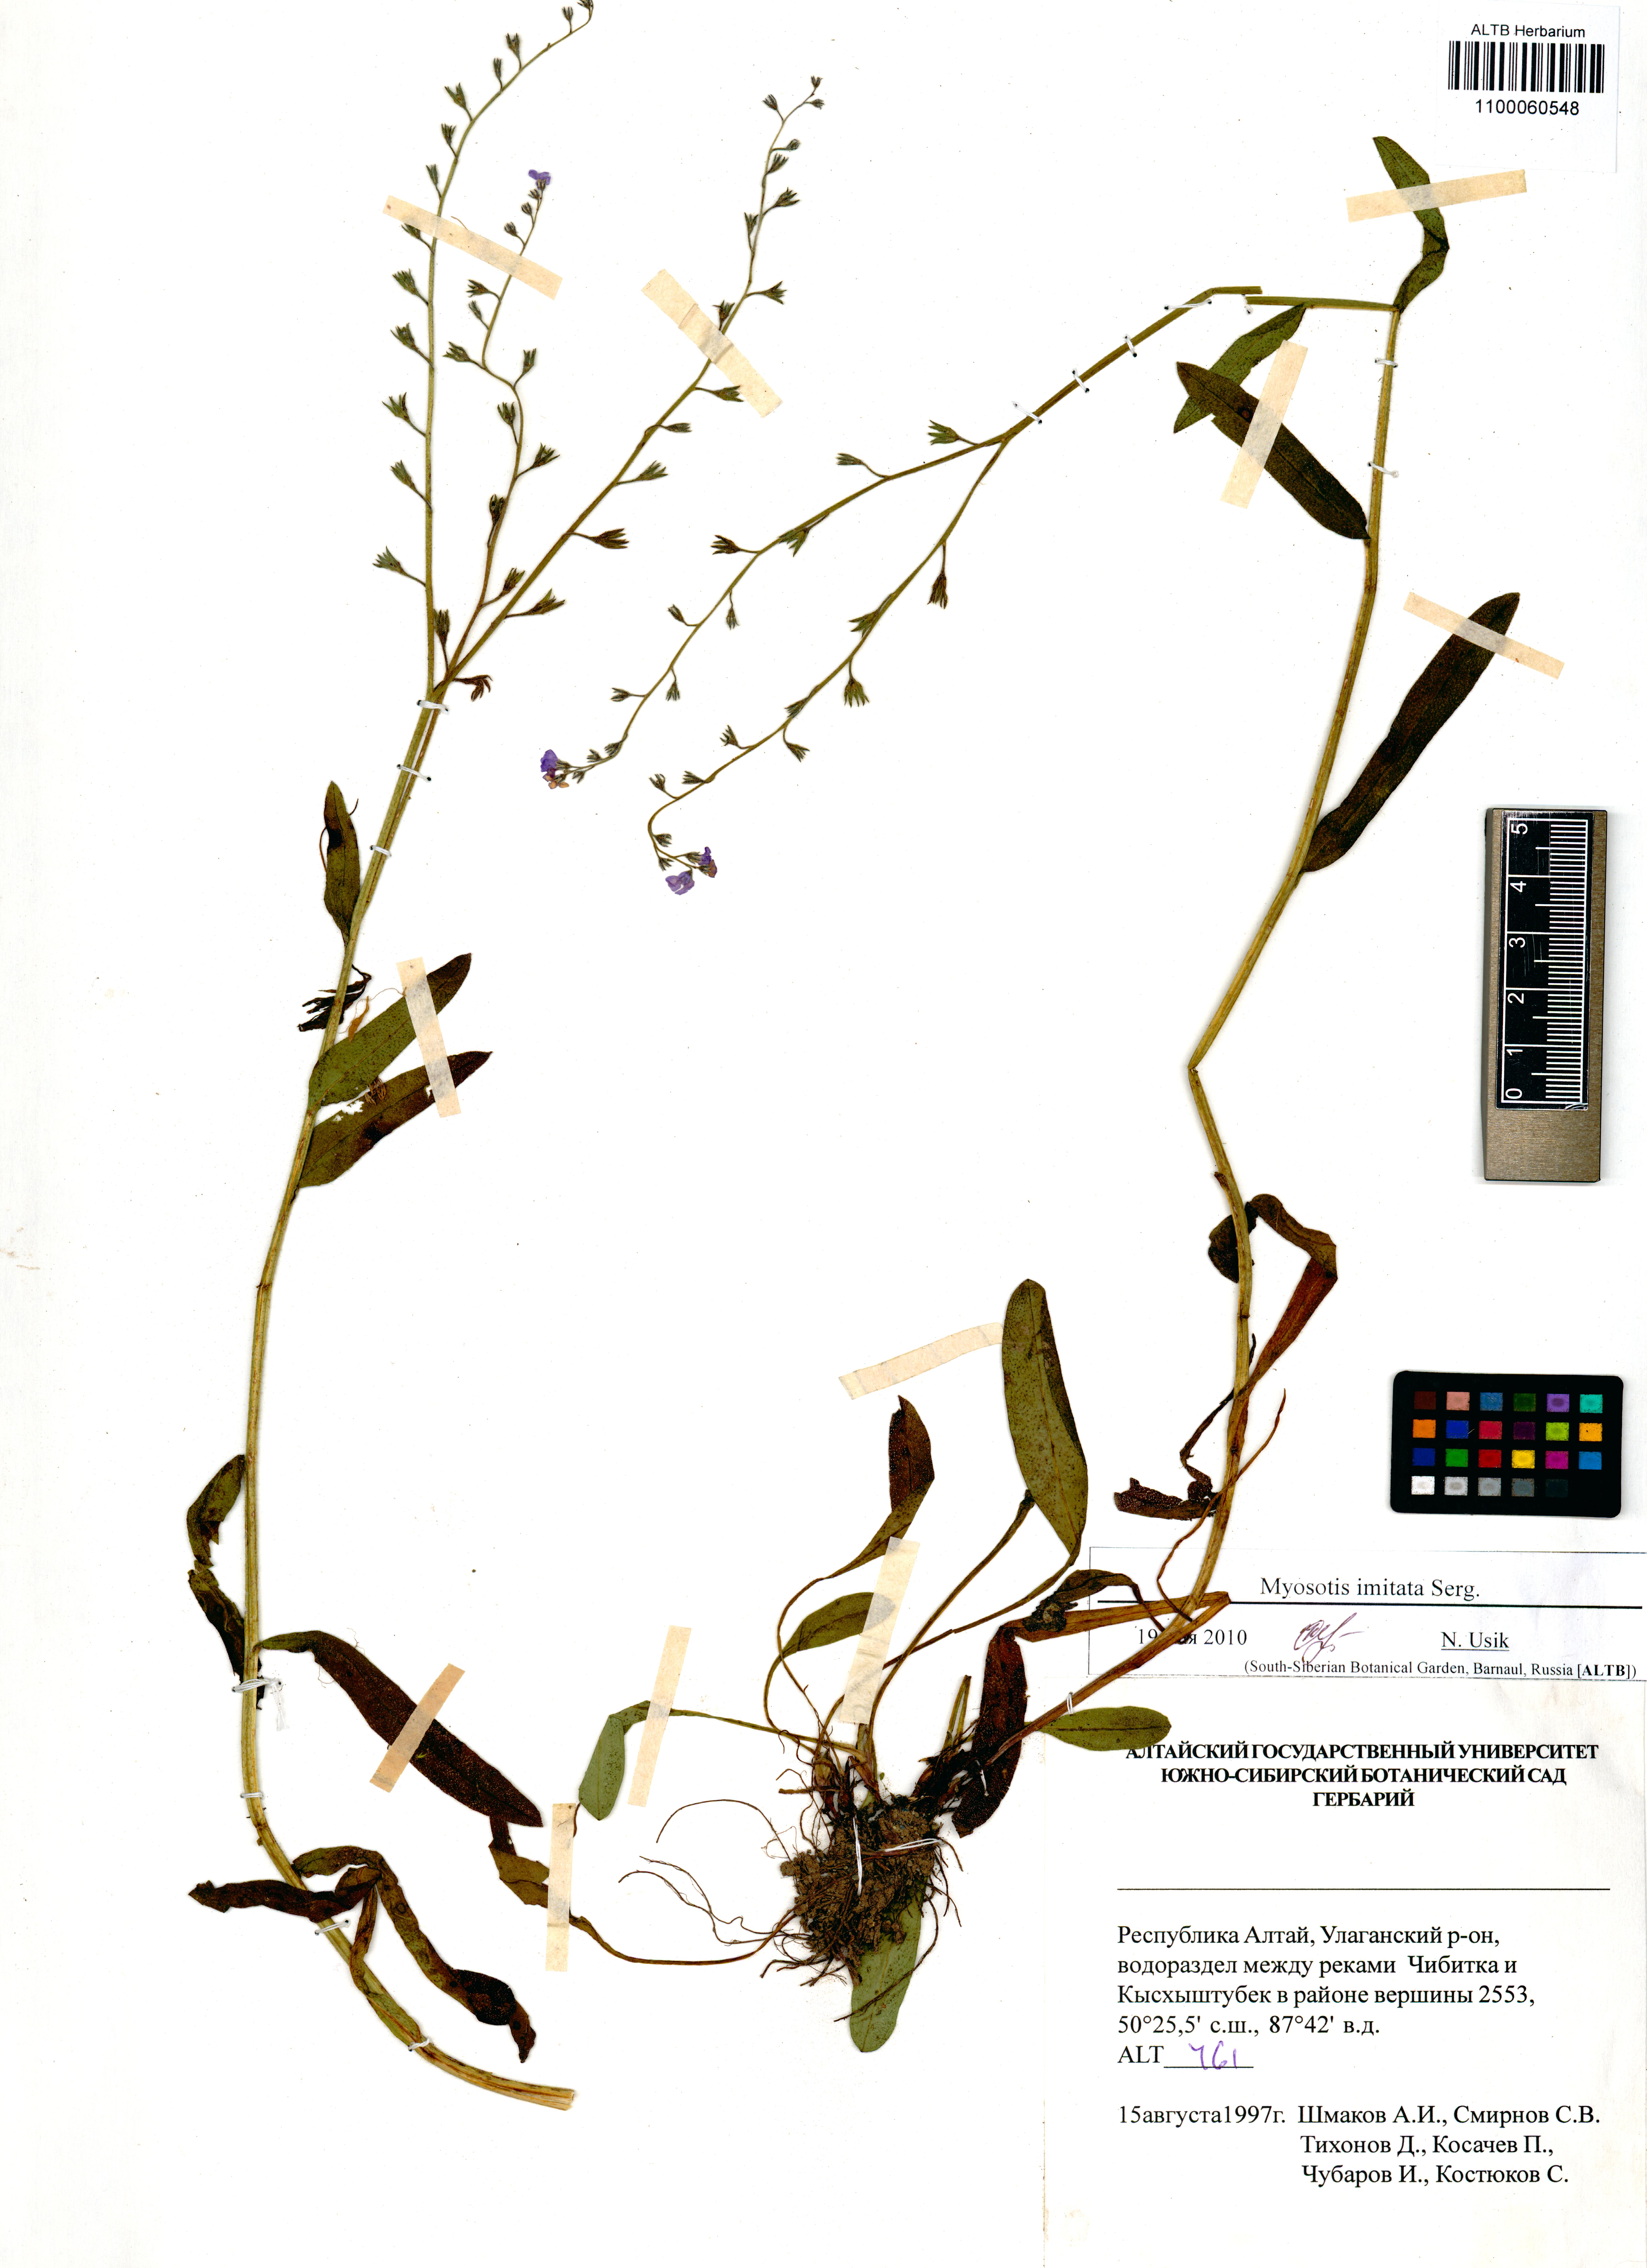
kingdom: Plantae
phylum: Tracheophyta
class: Magnoliopsida
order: Boraginales
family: Boraginaceae
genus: Myosotis
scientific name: Myosotis imitata
